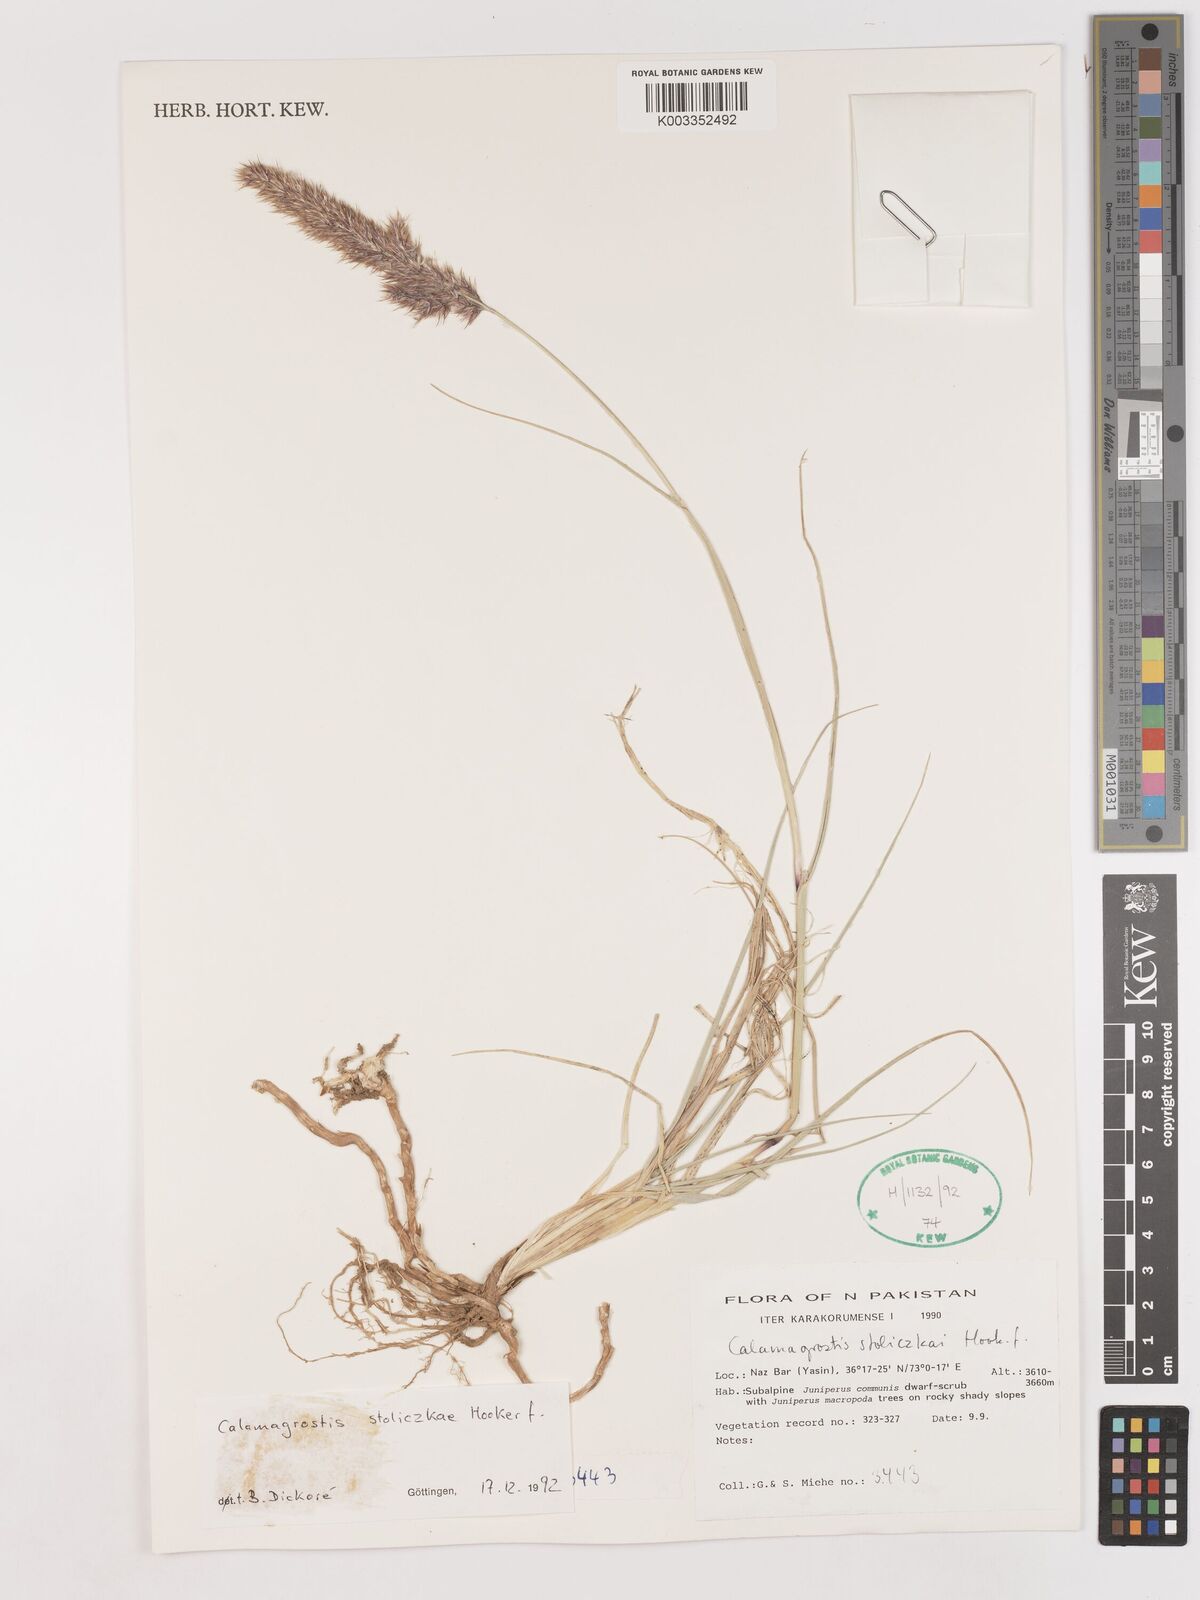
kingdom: Plantae
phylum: Tracheophyta
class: Liliopsida
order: Poales
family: Poaceae
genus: Calamagrostis
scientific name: Calamagrostis stolizkae
